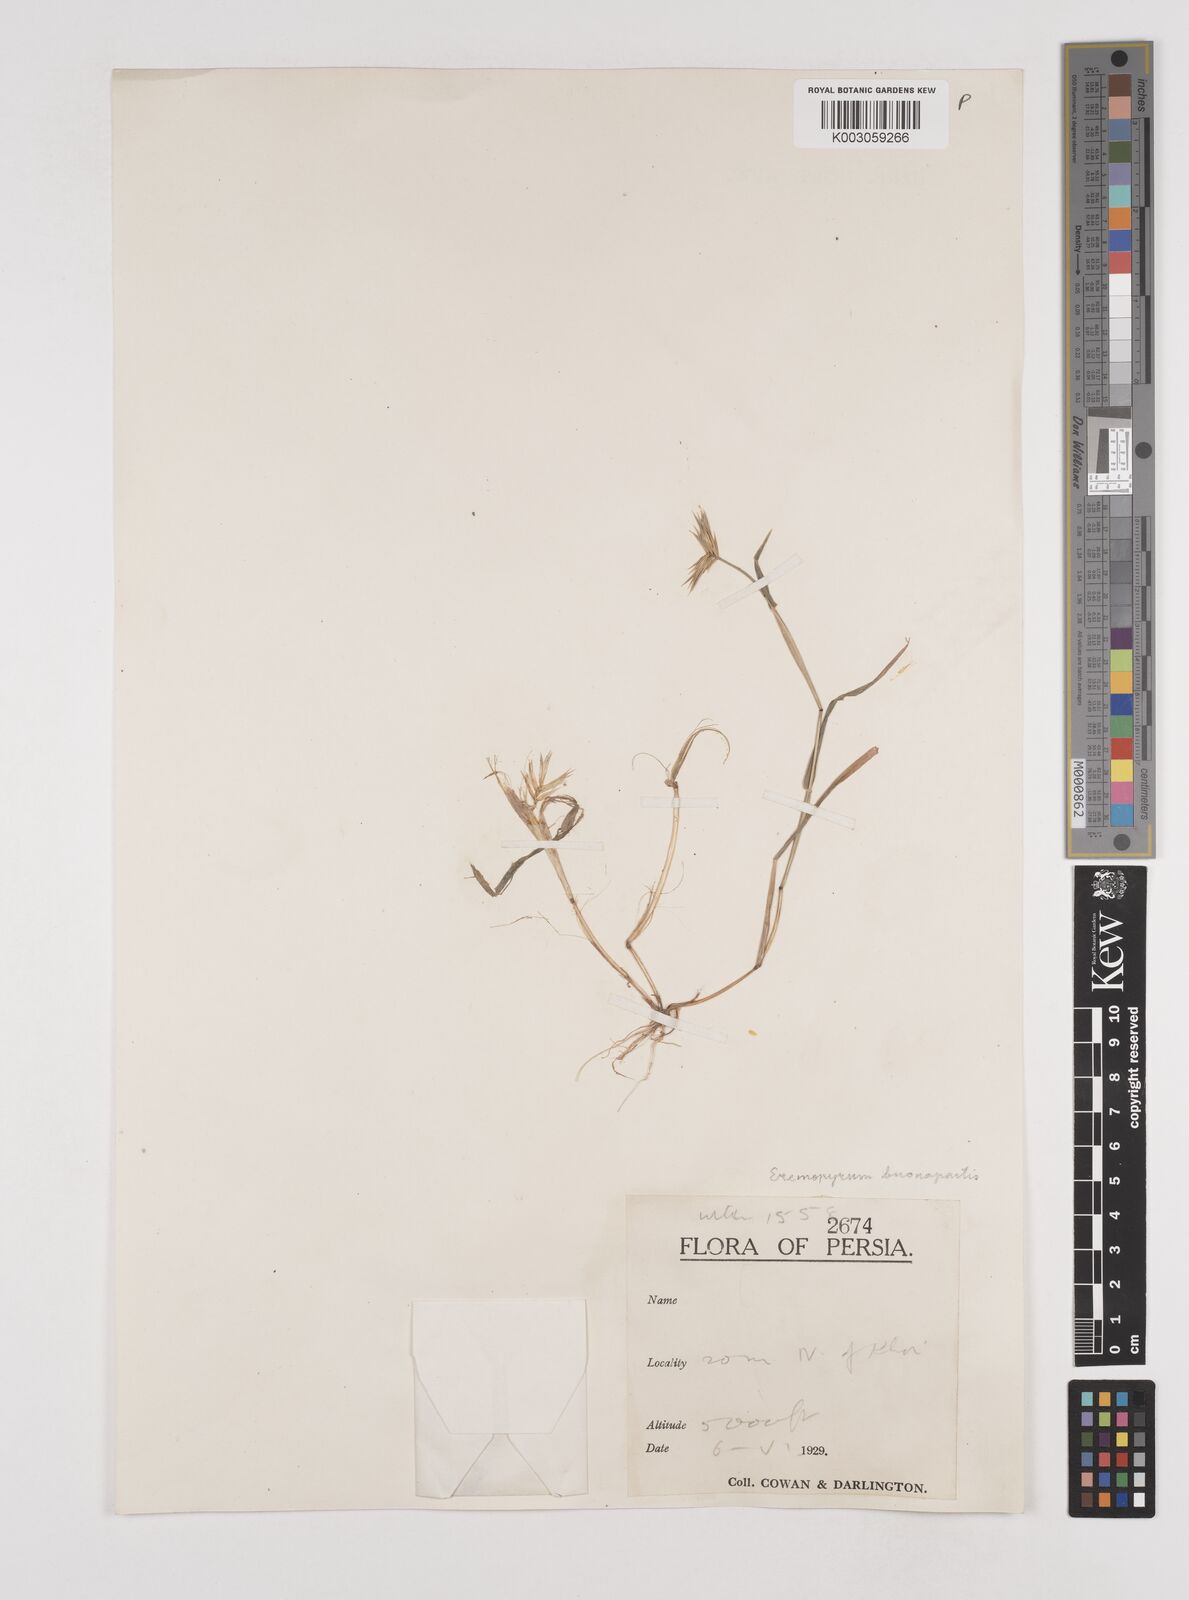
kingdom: Plantae
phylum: Tracheophyta
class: Liliopsida
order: Poales
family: Poaceae
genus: Eremopyrum
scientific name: Eremopyrum bonaepartis
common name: Tapertip false wheatgrass
